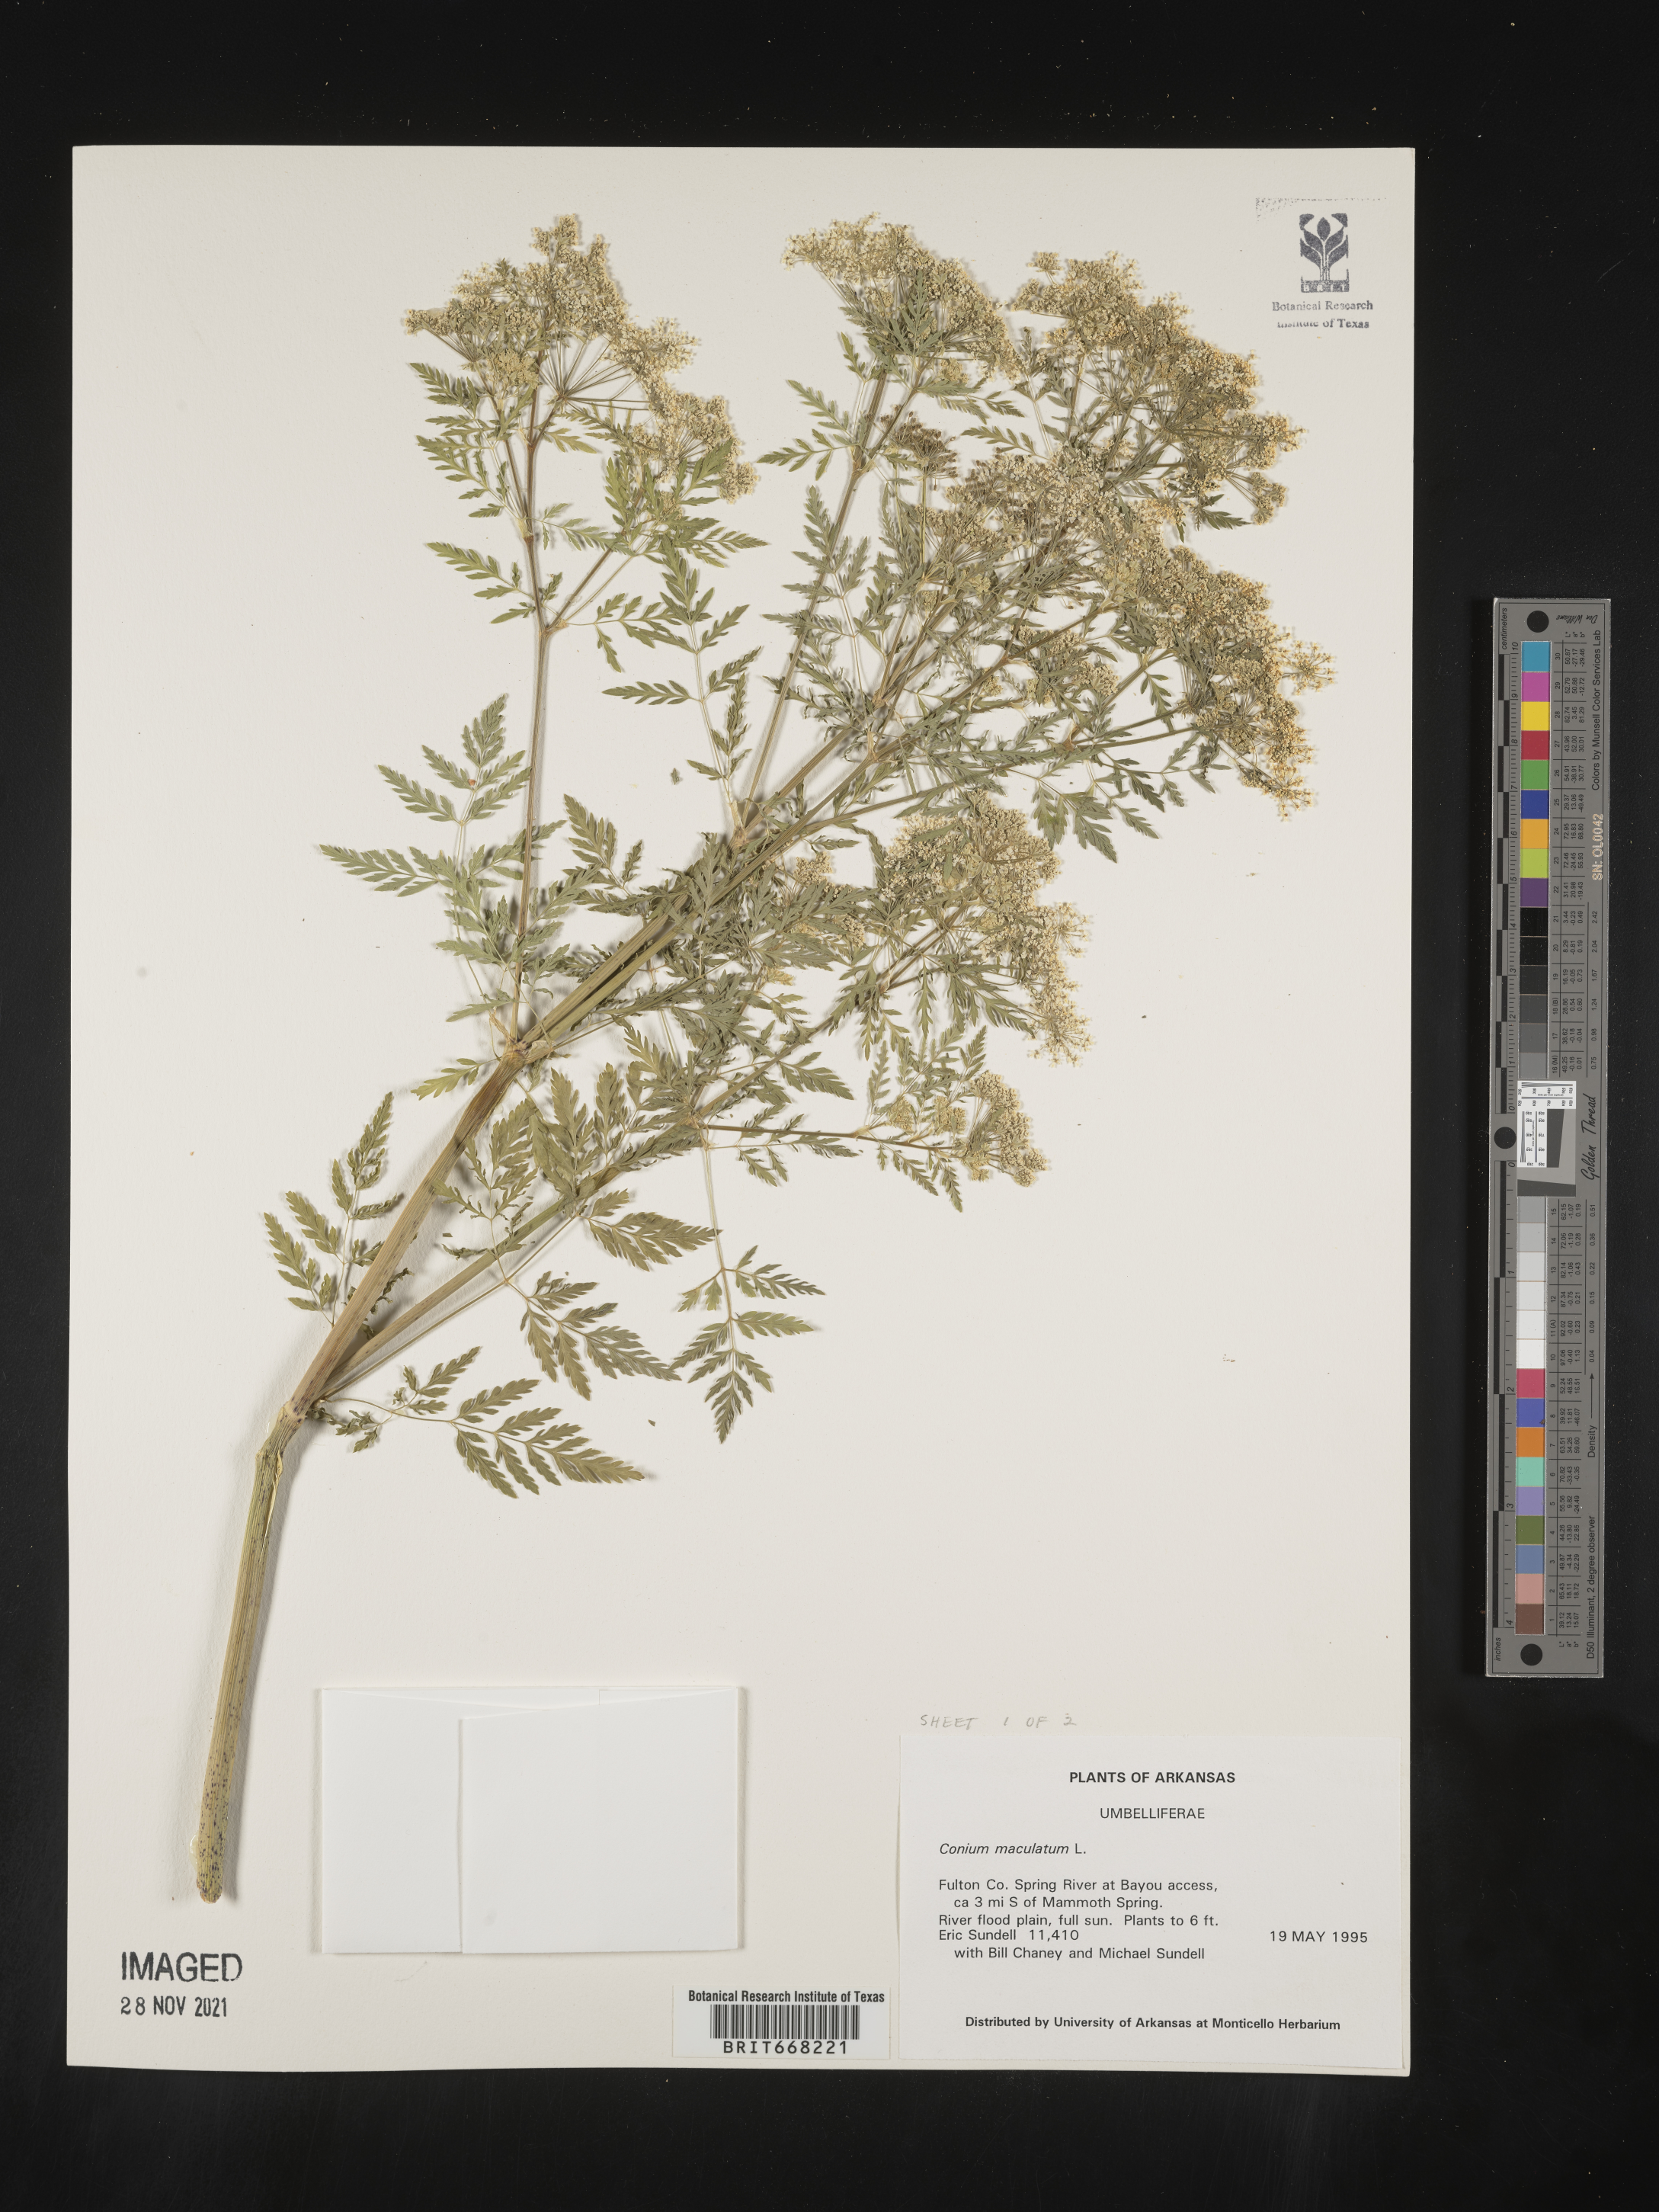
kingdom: Plantae
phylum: Tracheophyta
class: Magnoliopsida
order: Apiales
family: Apiaceae
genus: Conium
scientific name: Conium maculatum
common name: Hemlock
